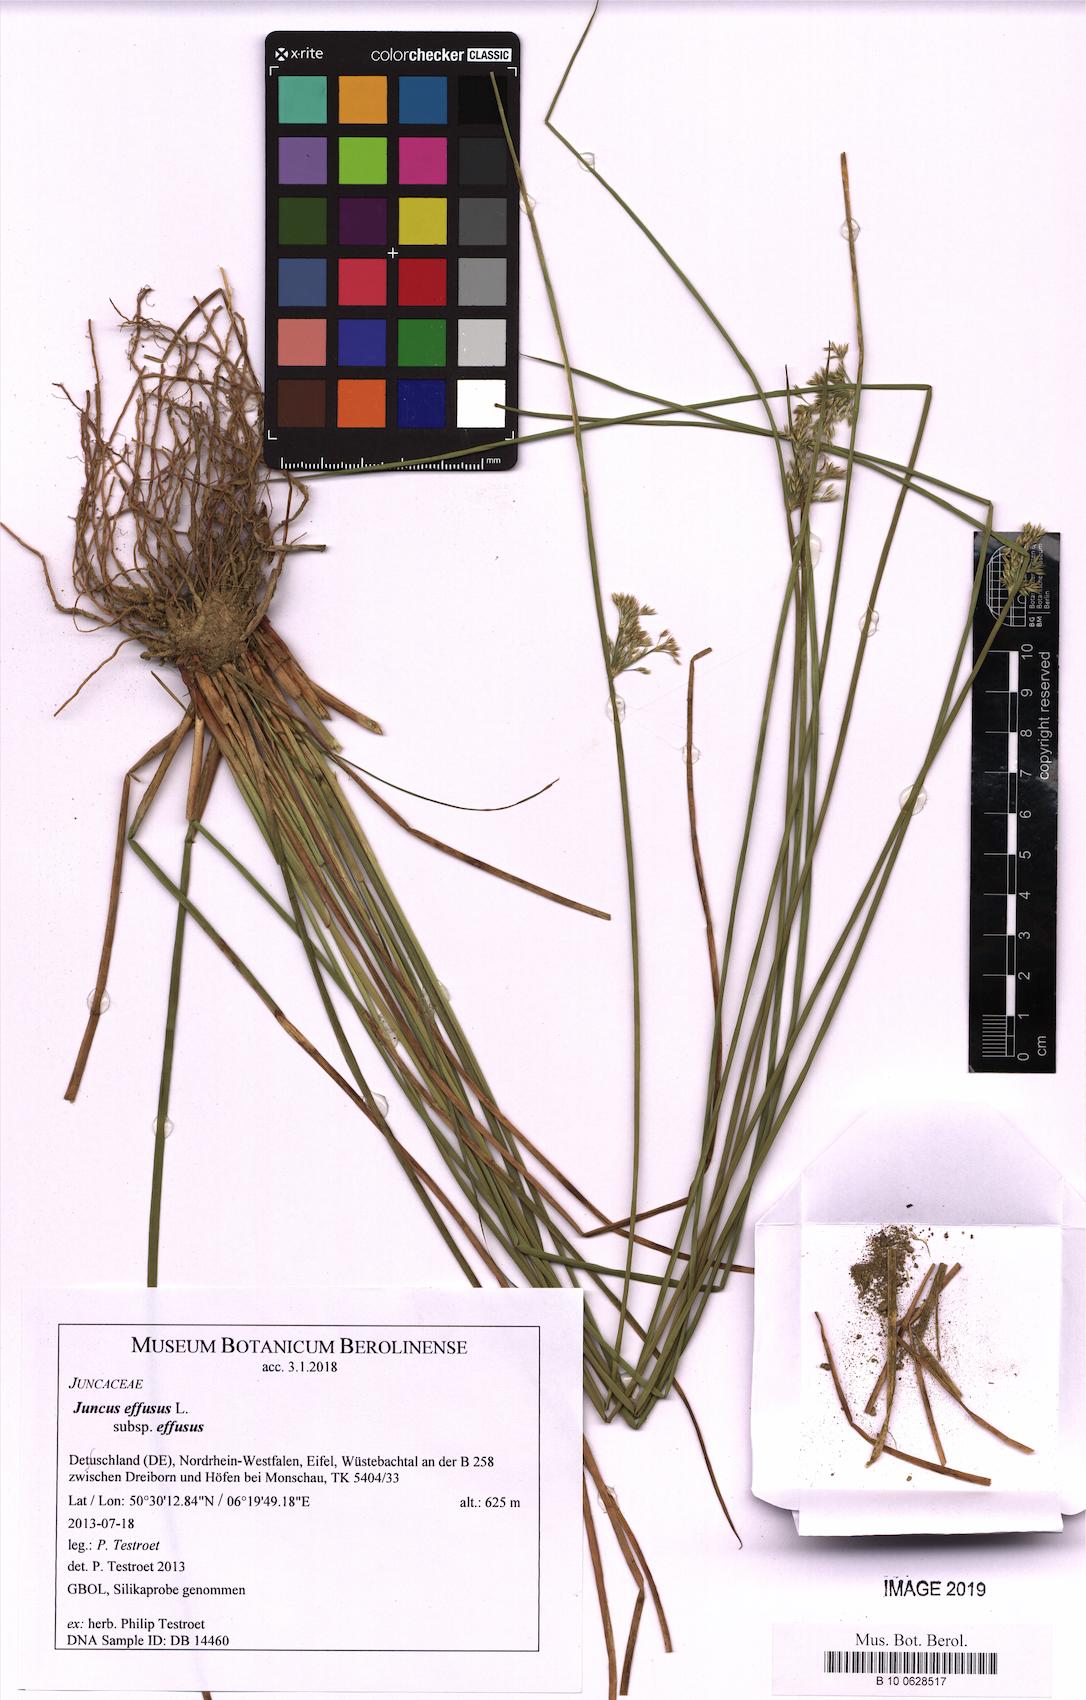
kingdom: Plantae
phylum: Tracheophyta
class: Liliopsida
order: Poales
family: Juncaceae
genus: Juncus
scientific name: Juncus effusus
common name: Soft rush
